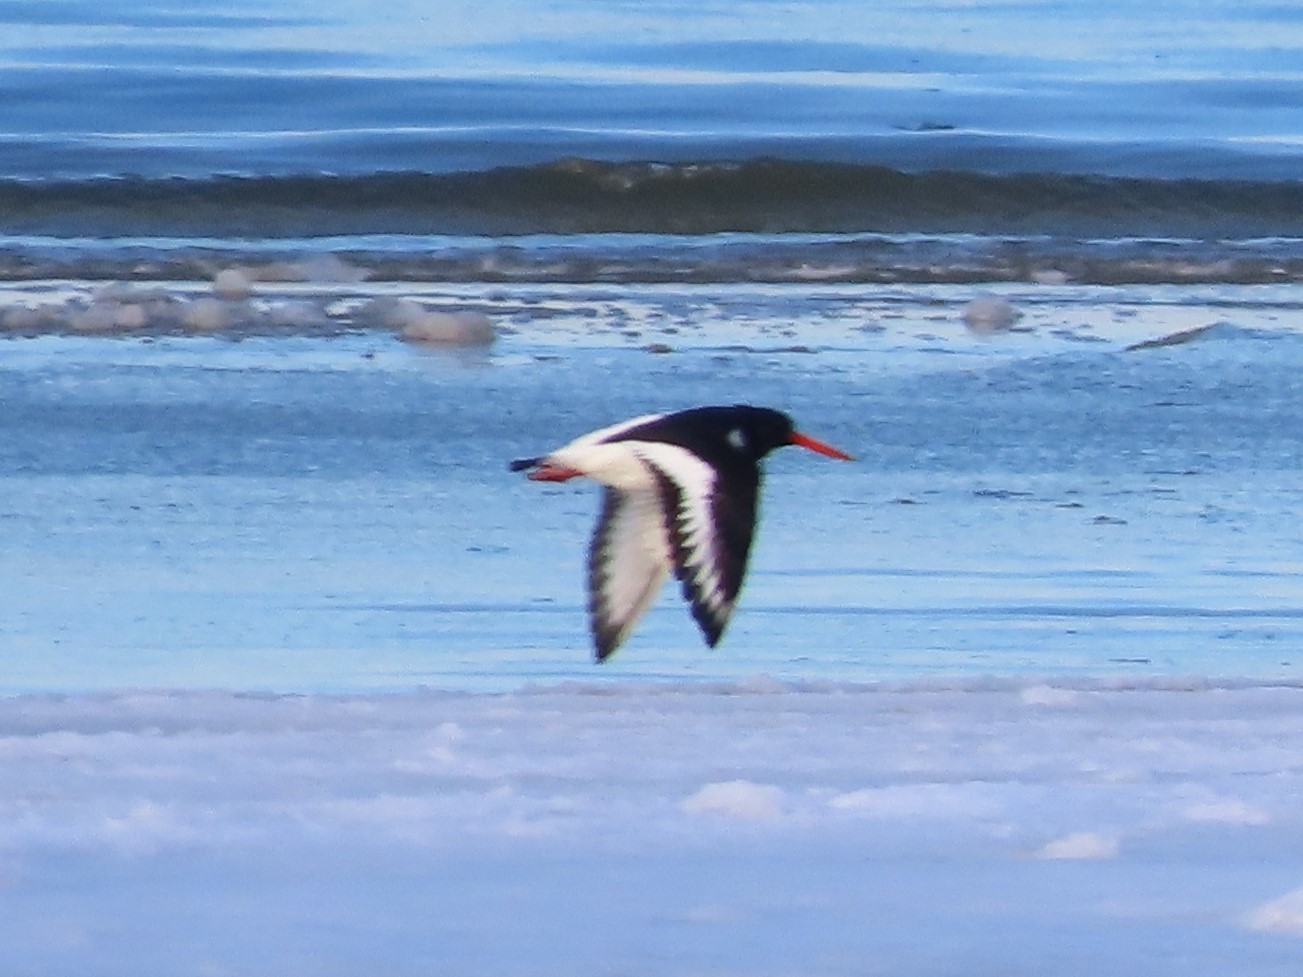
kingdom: Animalia
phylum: Chordata
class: Aves
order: Charadriiformes
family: Haematopodidae
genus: Haematopus
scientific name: Haematopus ostralegus
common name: Strandskade
